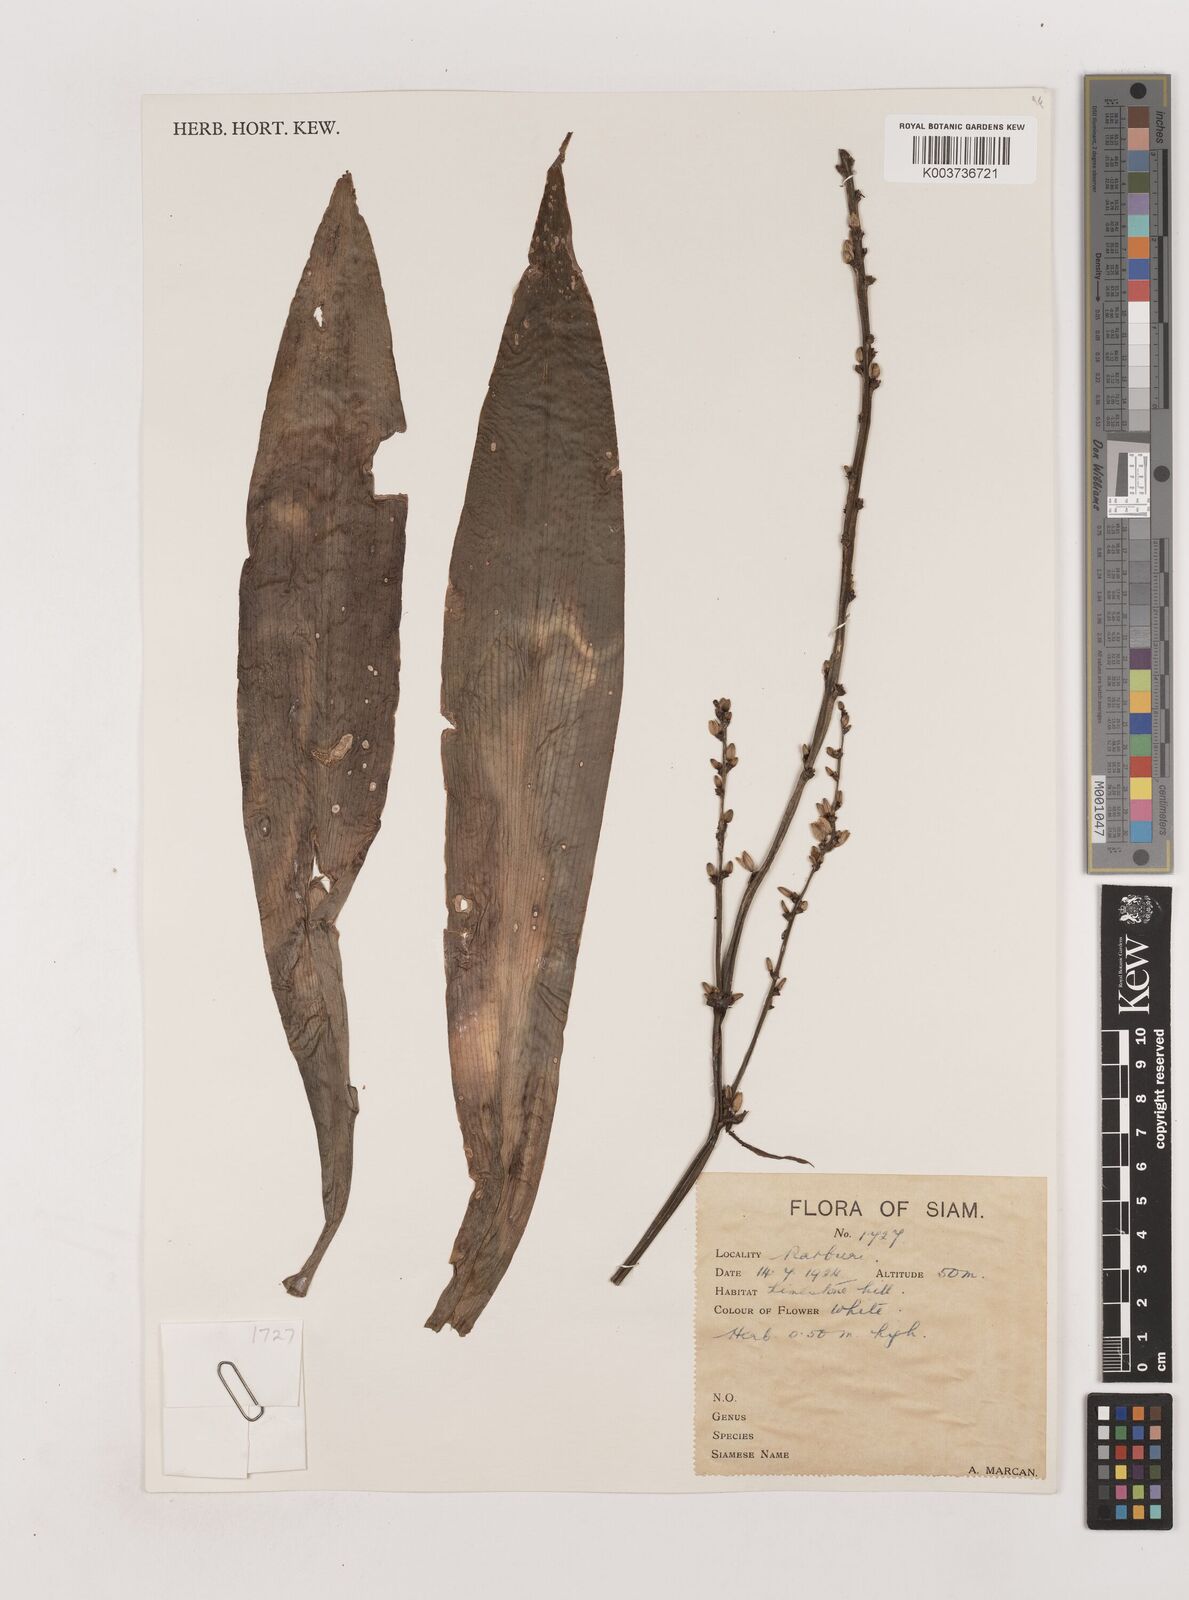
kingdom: Plantae
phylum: Tracheophyta
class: Liliopsida
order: Asparagales
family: Asparagaceae
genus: Chlorophytum
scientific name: Chlorophytum
